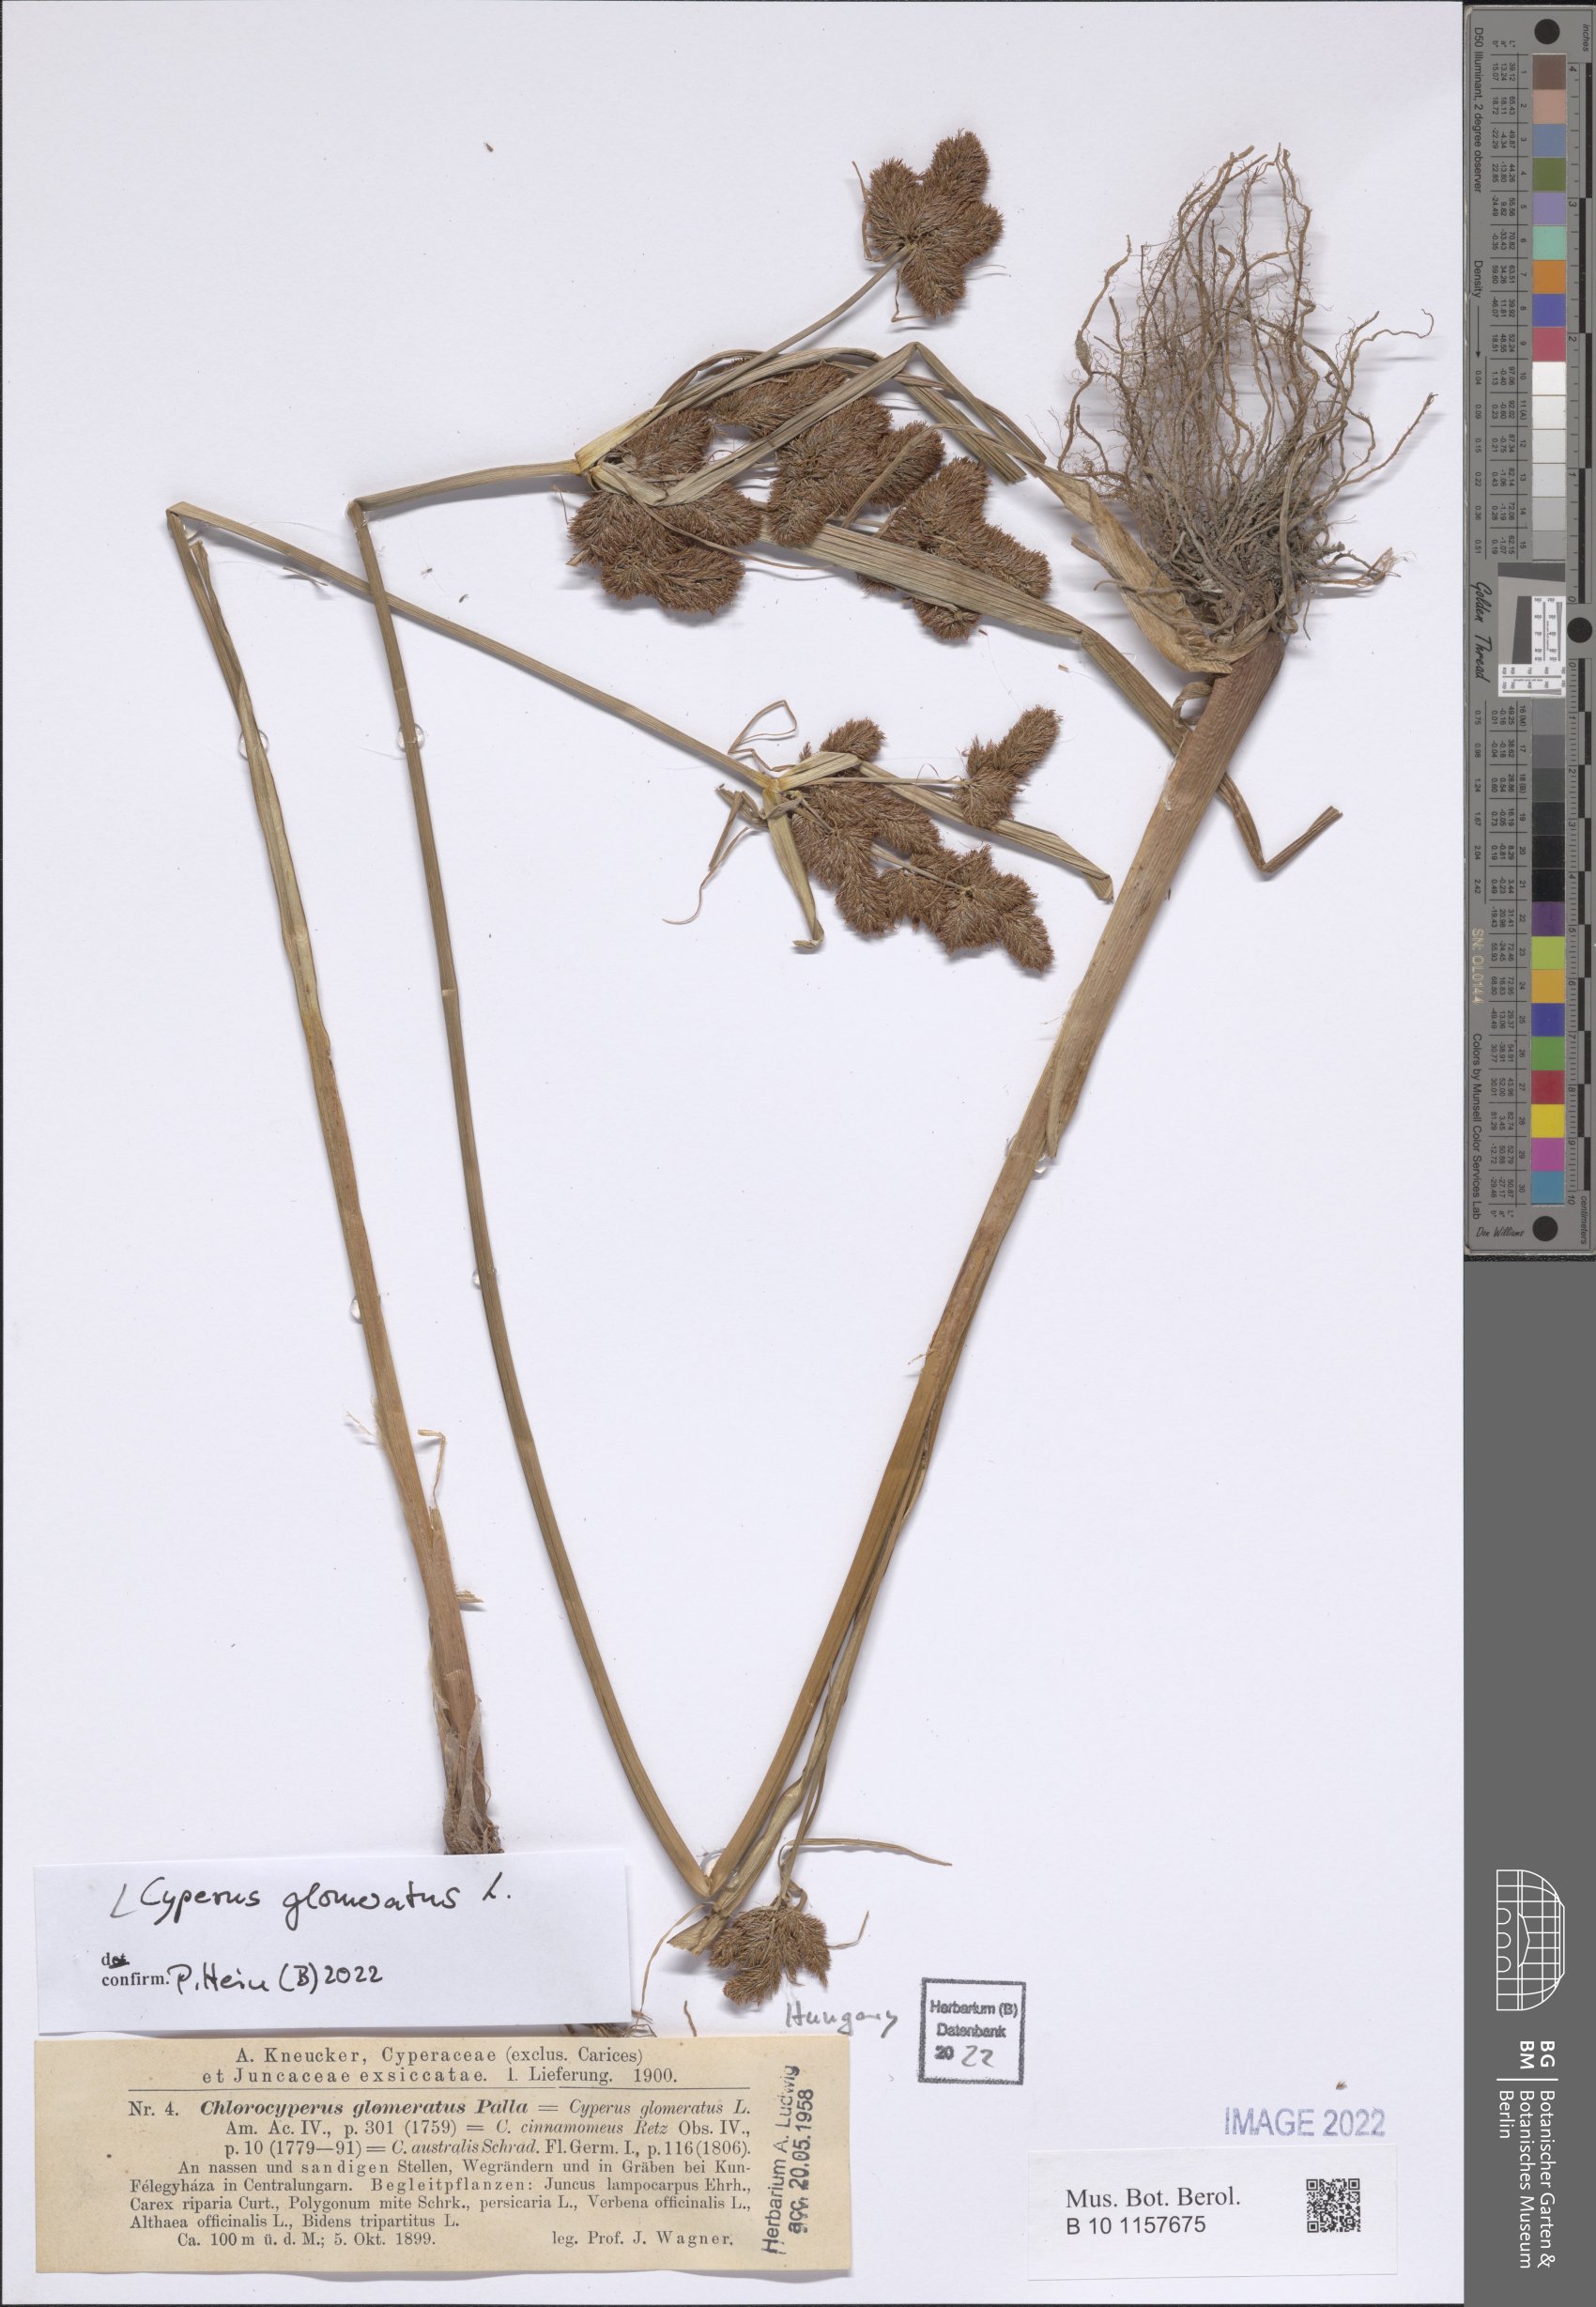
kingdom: Plantae
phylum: Tracheophyta
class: Liliopsida
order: Poales
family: Cyperaceae
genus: Cyperus
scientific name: Cyperus glomeratus
